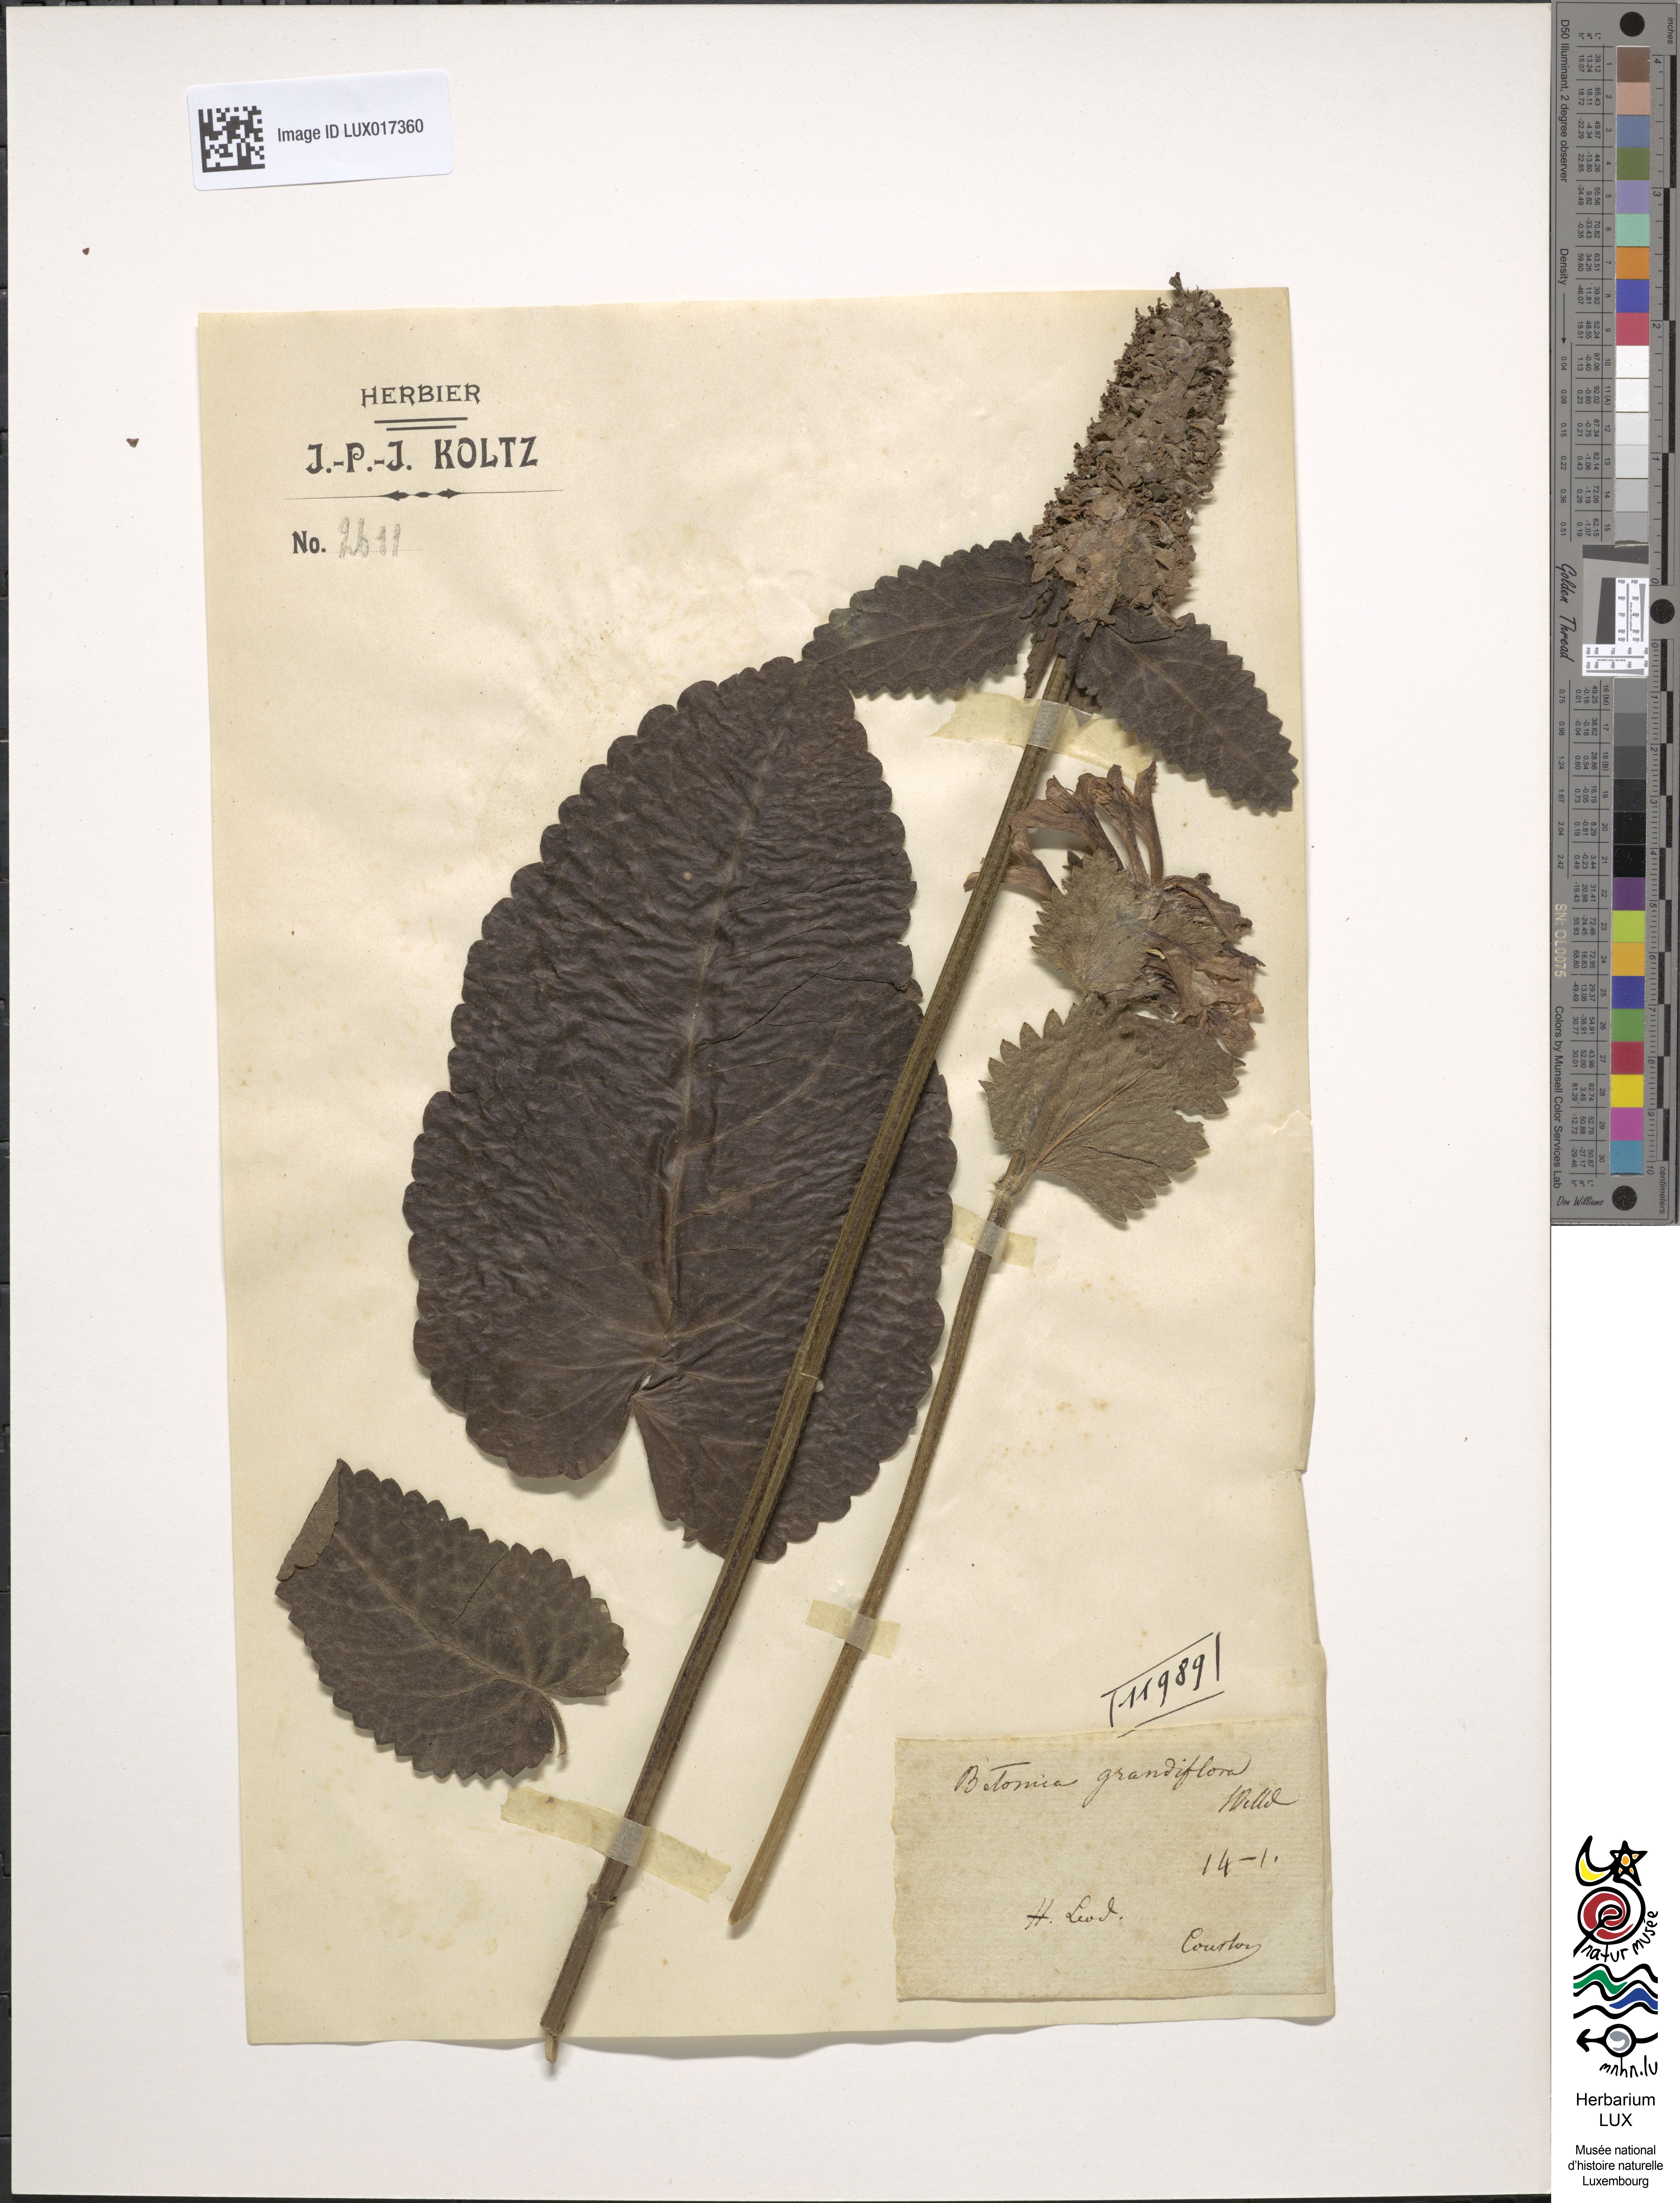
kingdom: Plantae
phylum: Tracheophyta
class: Magnoliopsida
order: Lamiales
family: Lamiaceae
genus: Stachys
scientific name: Stachys menthifolia
